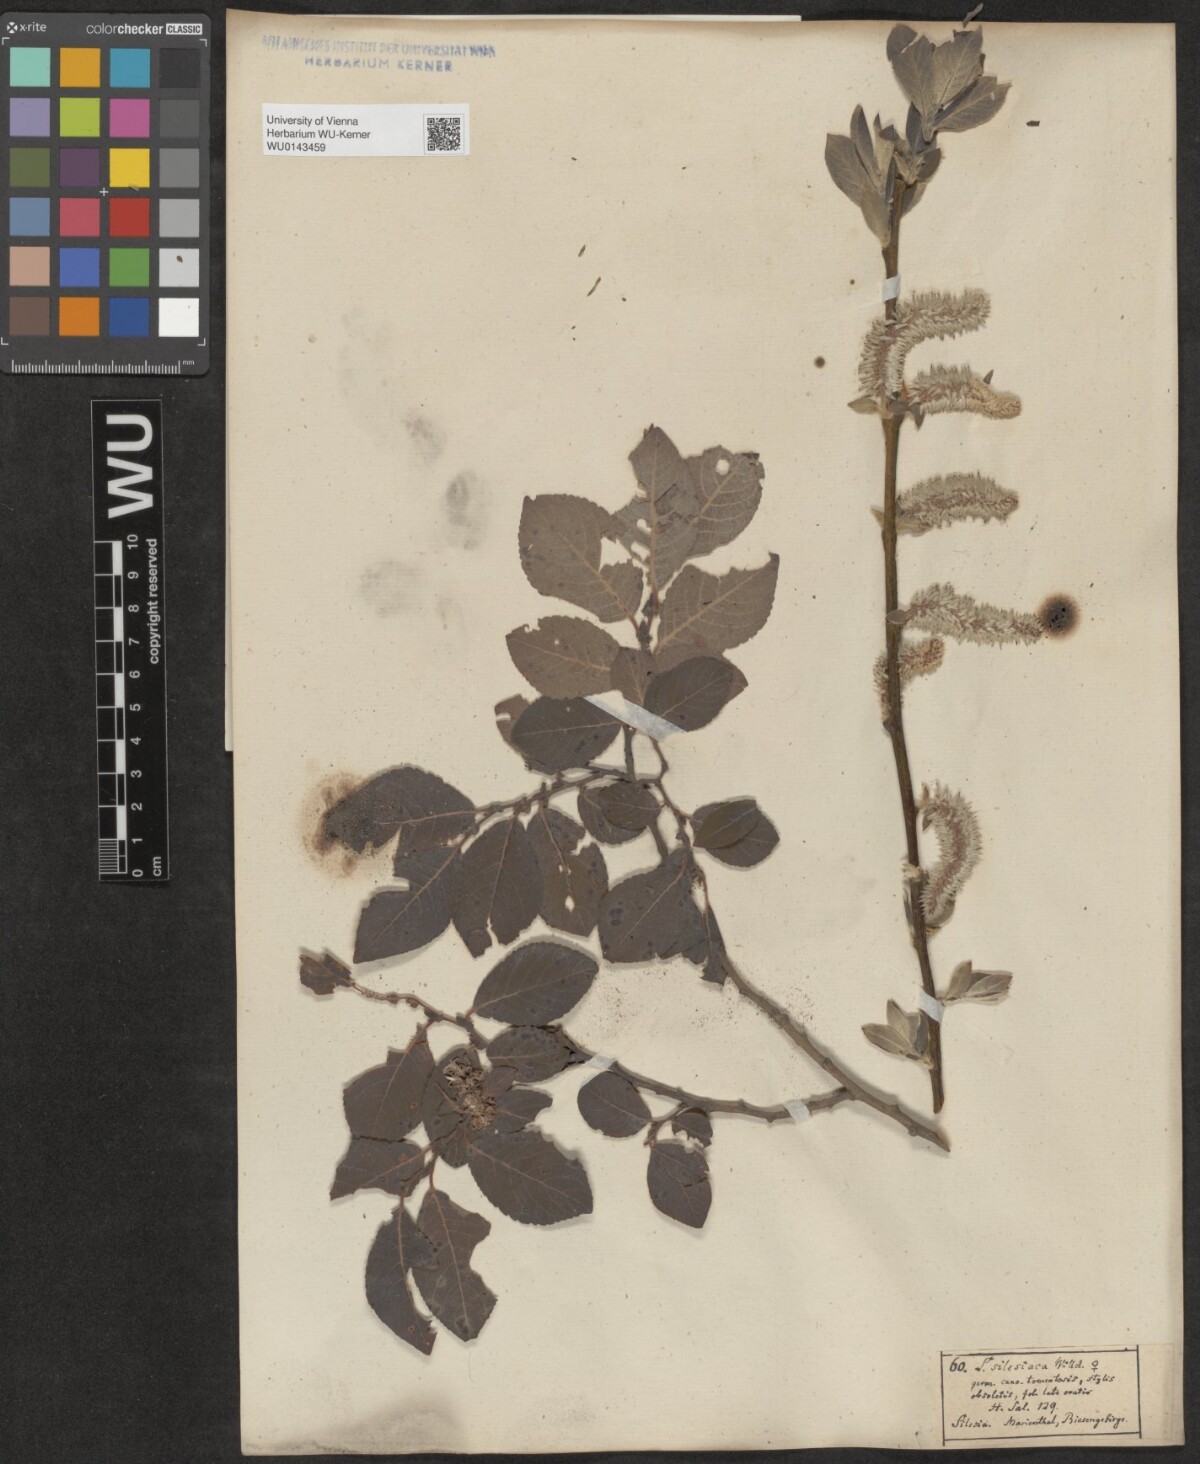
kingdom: Plantae
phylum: Tracheophyta
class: Magnoliopsida
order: Malpighiales
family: Salicaceae
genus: Salix
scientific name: Salix silesiaca
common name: Silesian willow
